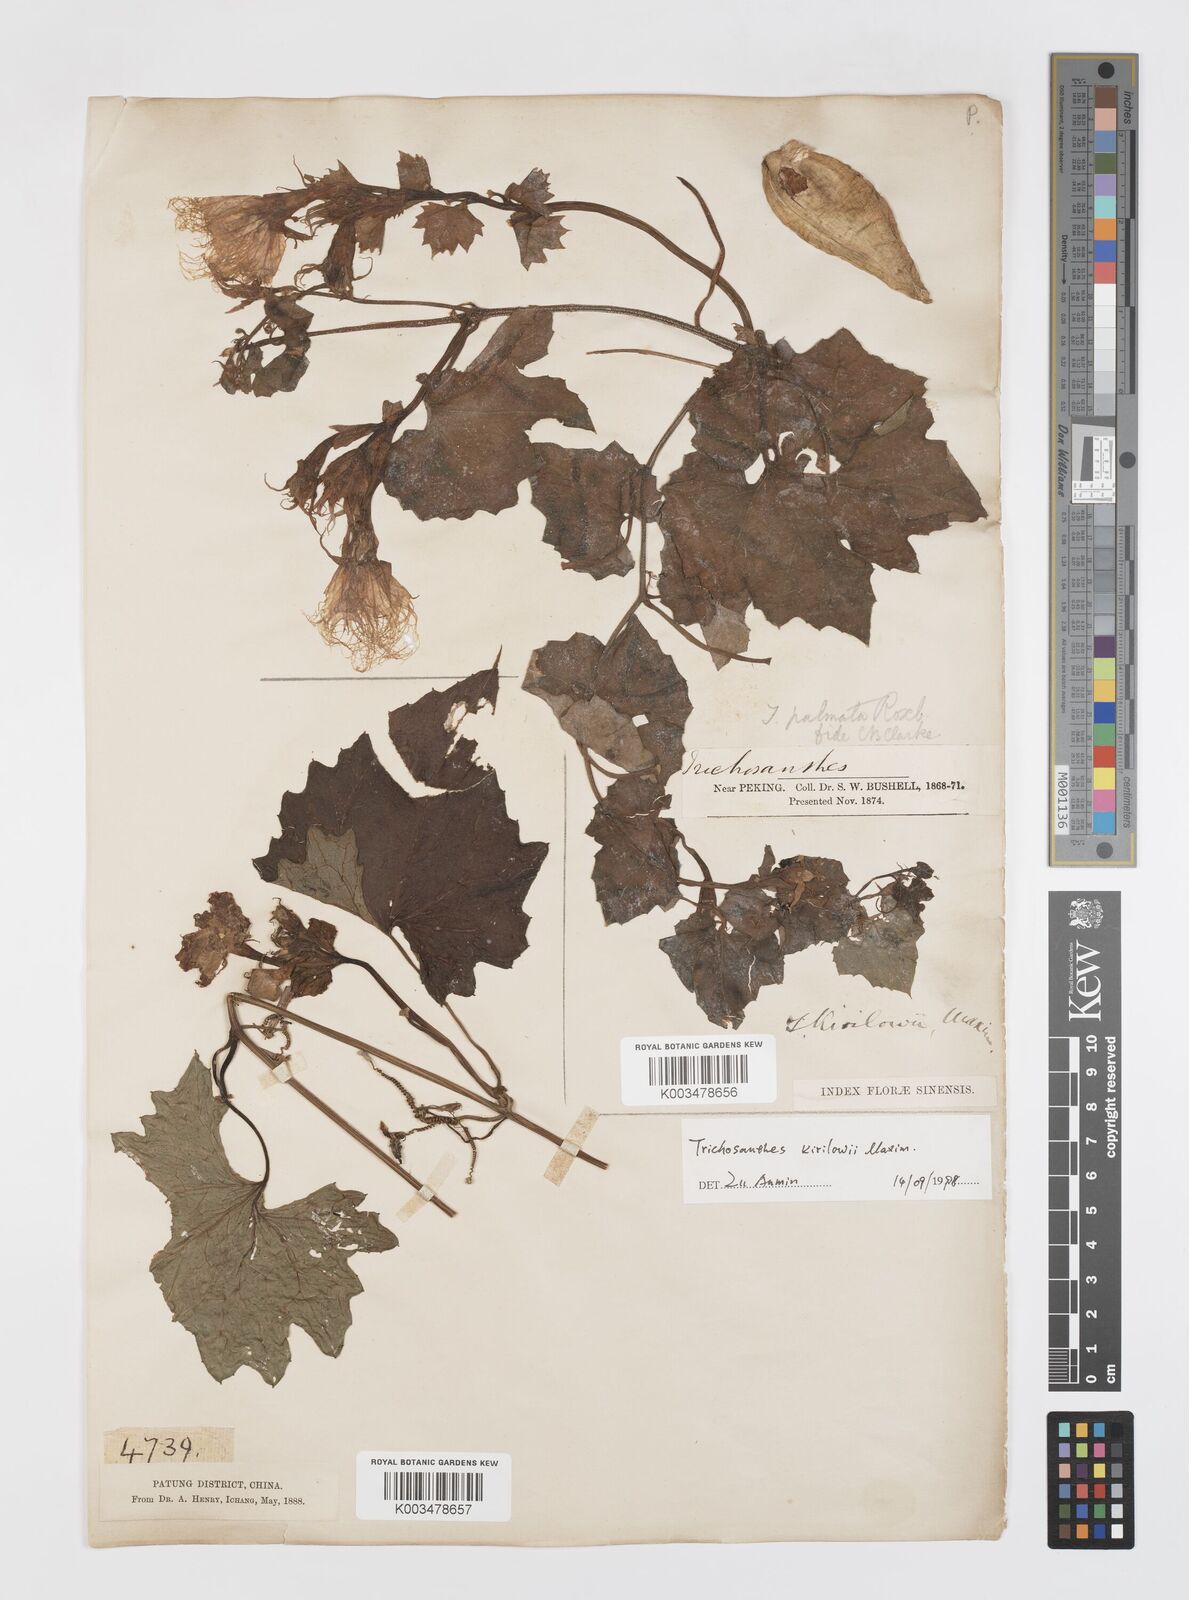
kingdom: Plantae
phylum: Tracheophyta
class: Magnoliopsida
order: Cucurbitales
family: Cucurbitaceae
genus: Trichosanthes
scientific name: Trichosanthes kirilowii
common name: Chinese-cucumber
